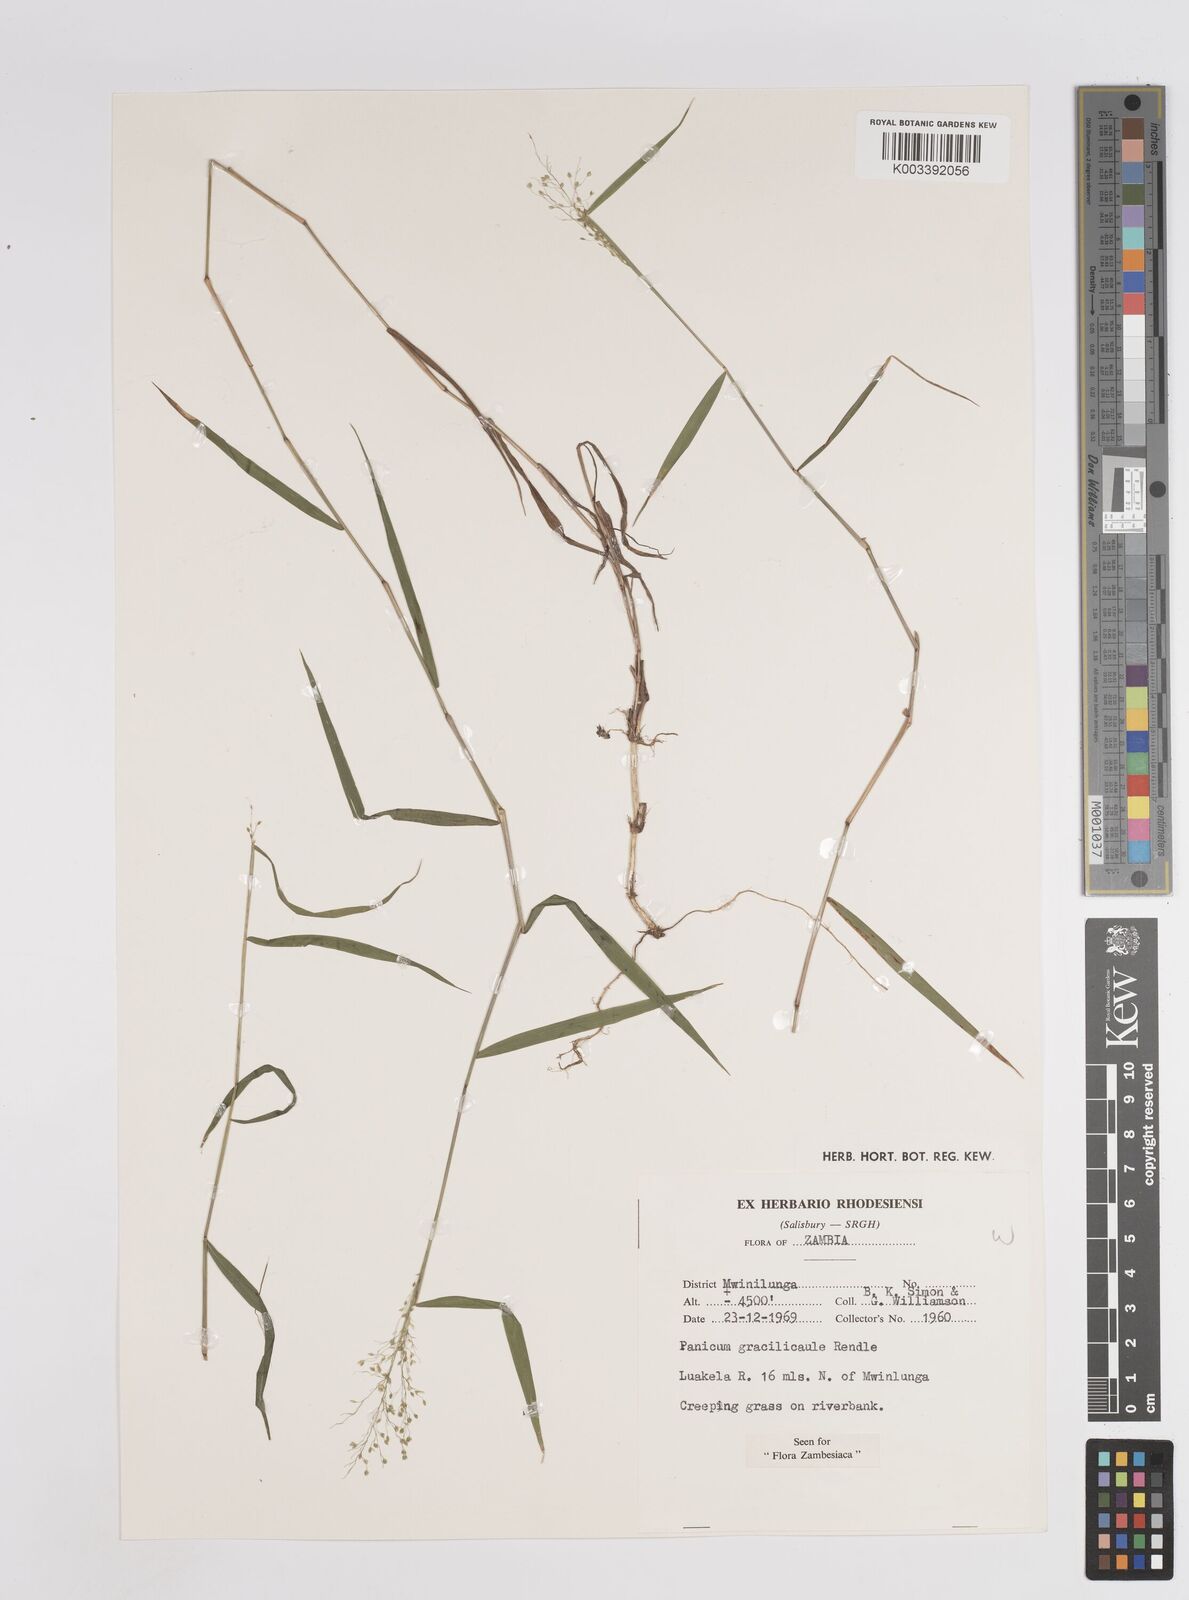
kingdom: Plantae
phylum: Tracheophyta
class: Liliopsida
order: Poales
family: Poaceae
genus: Trichanthecium
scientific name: Trichanthecium gracilicaule
